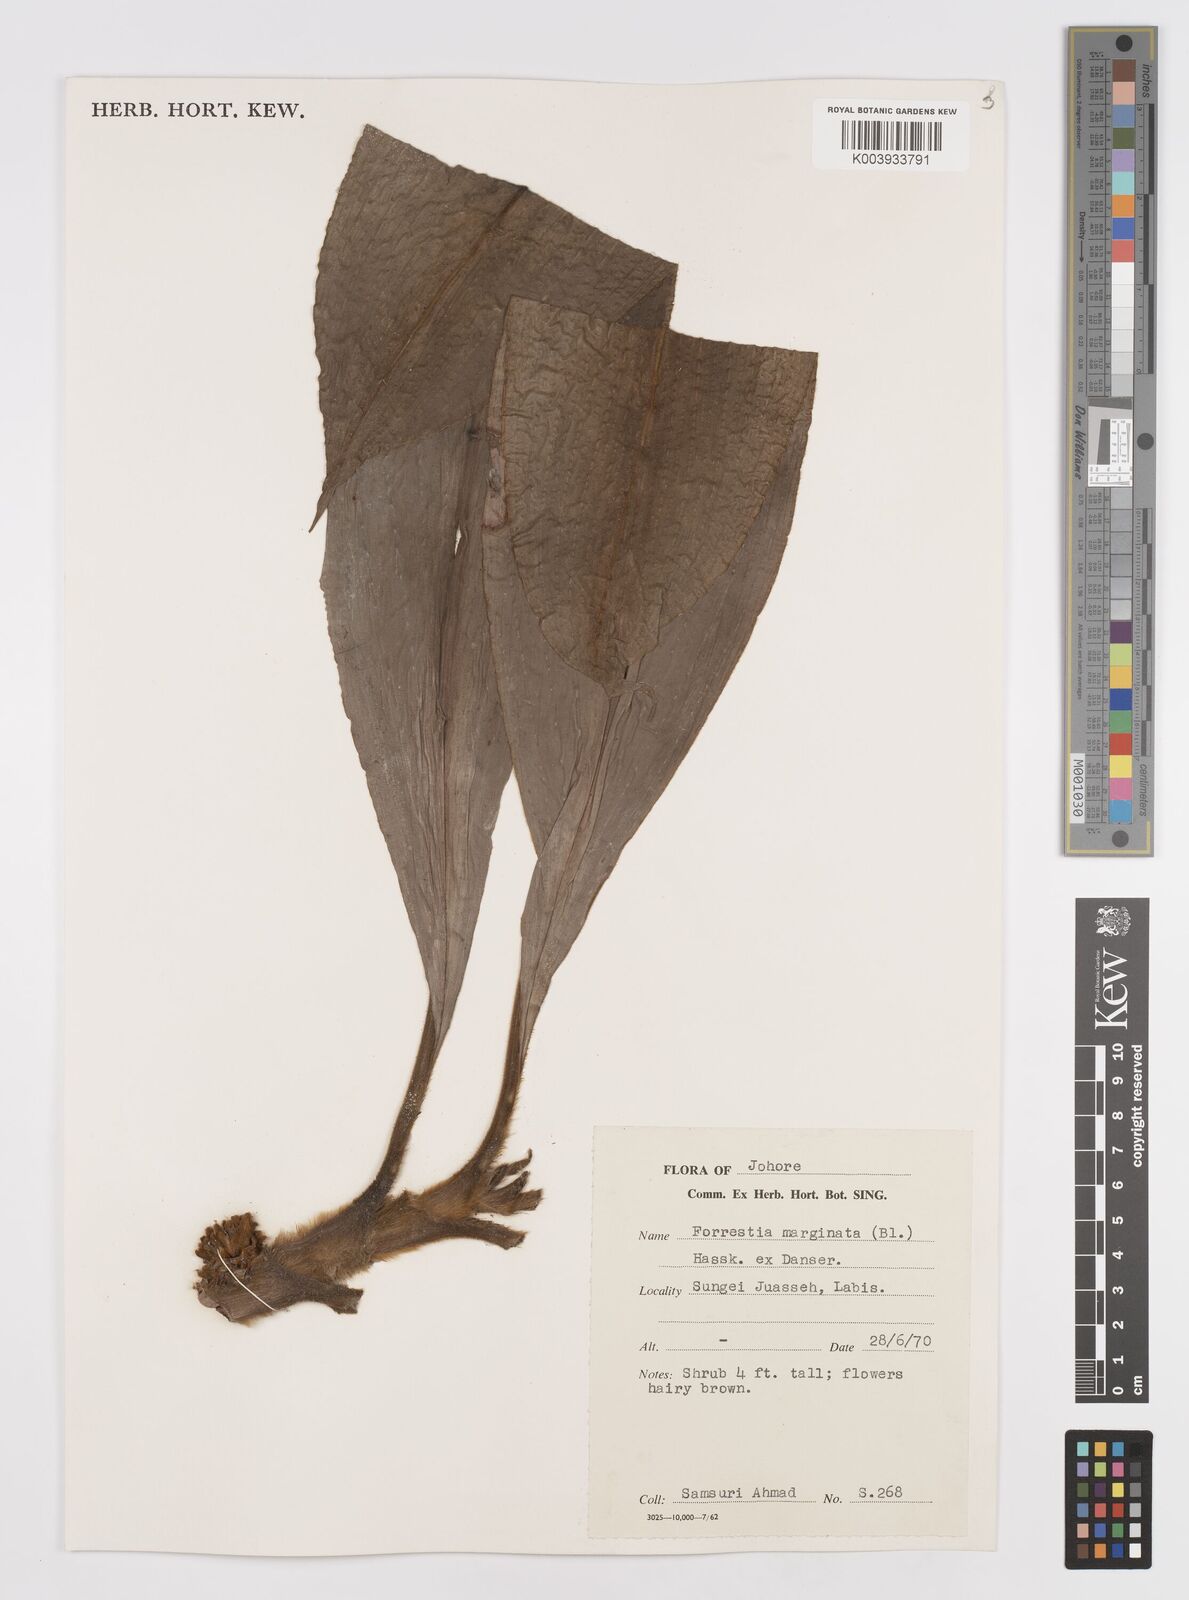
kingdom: Plantae
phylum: Tracheophyta
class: Liliopsida
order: Commelinales
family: Commelinaceae
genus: Amischotolype
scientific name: Amischotolype marginata
